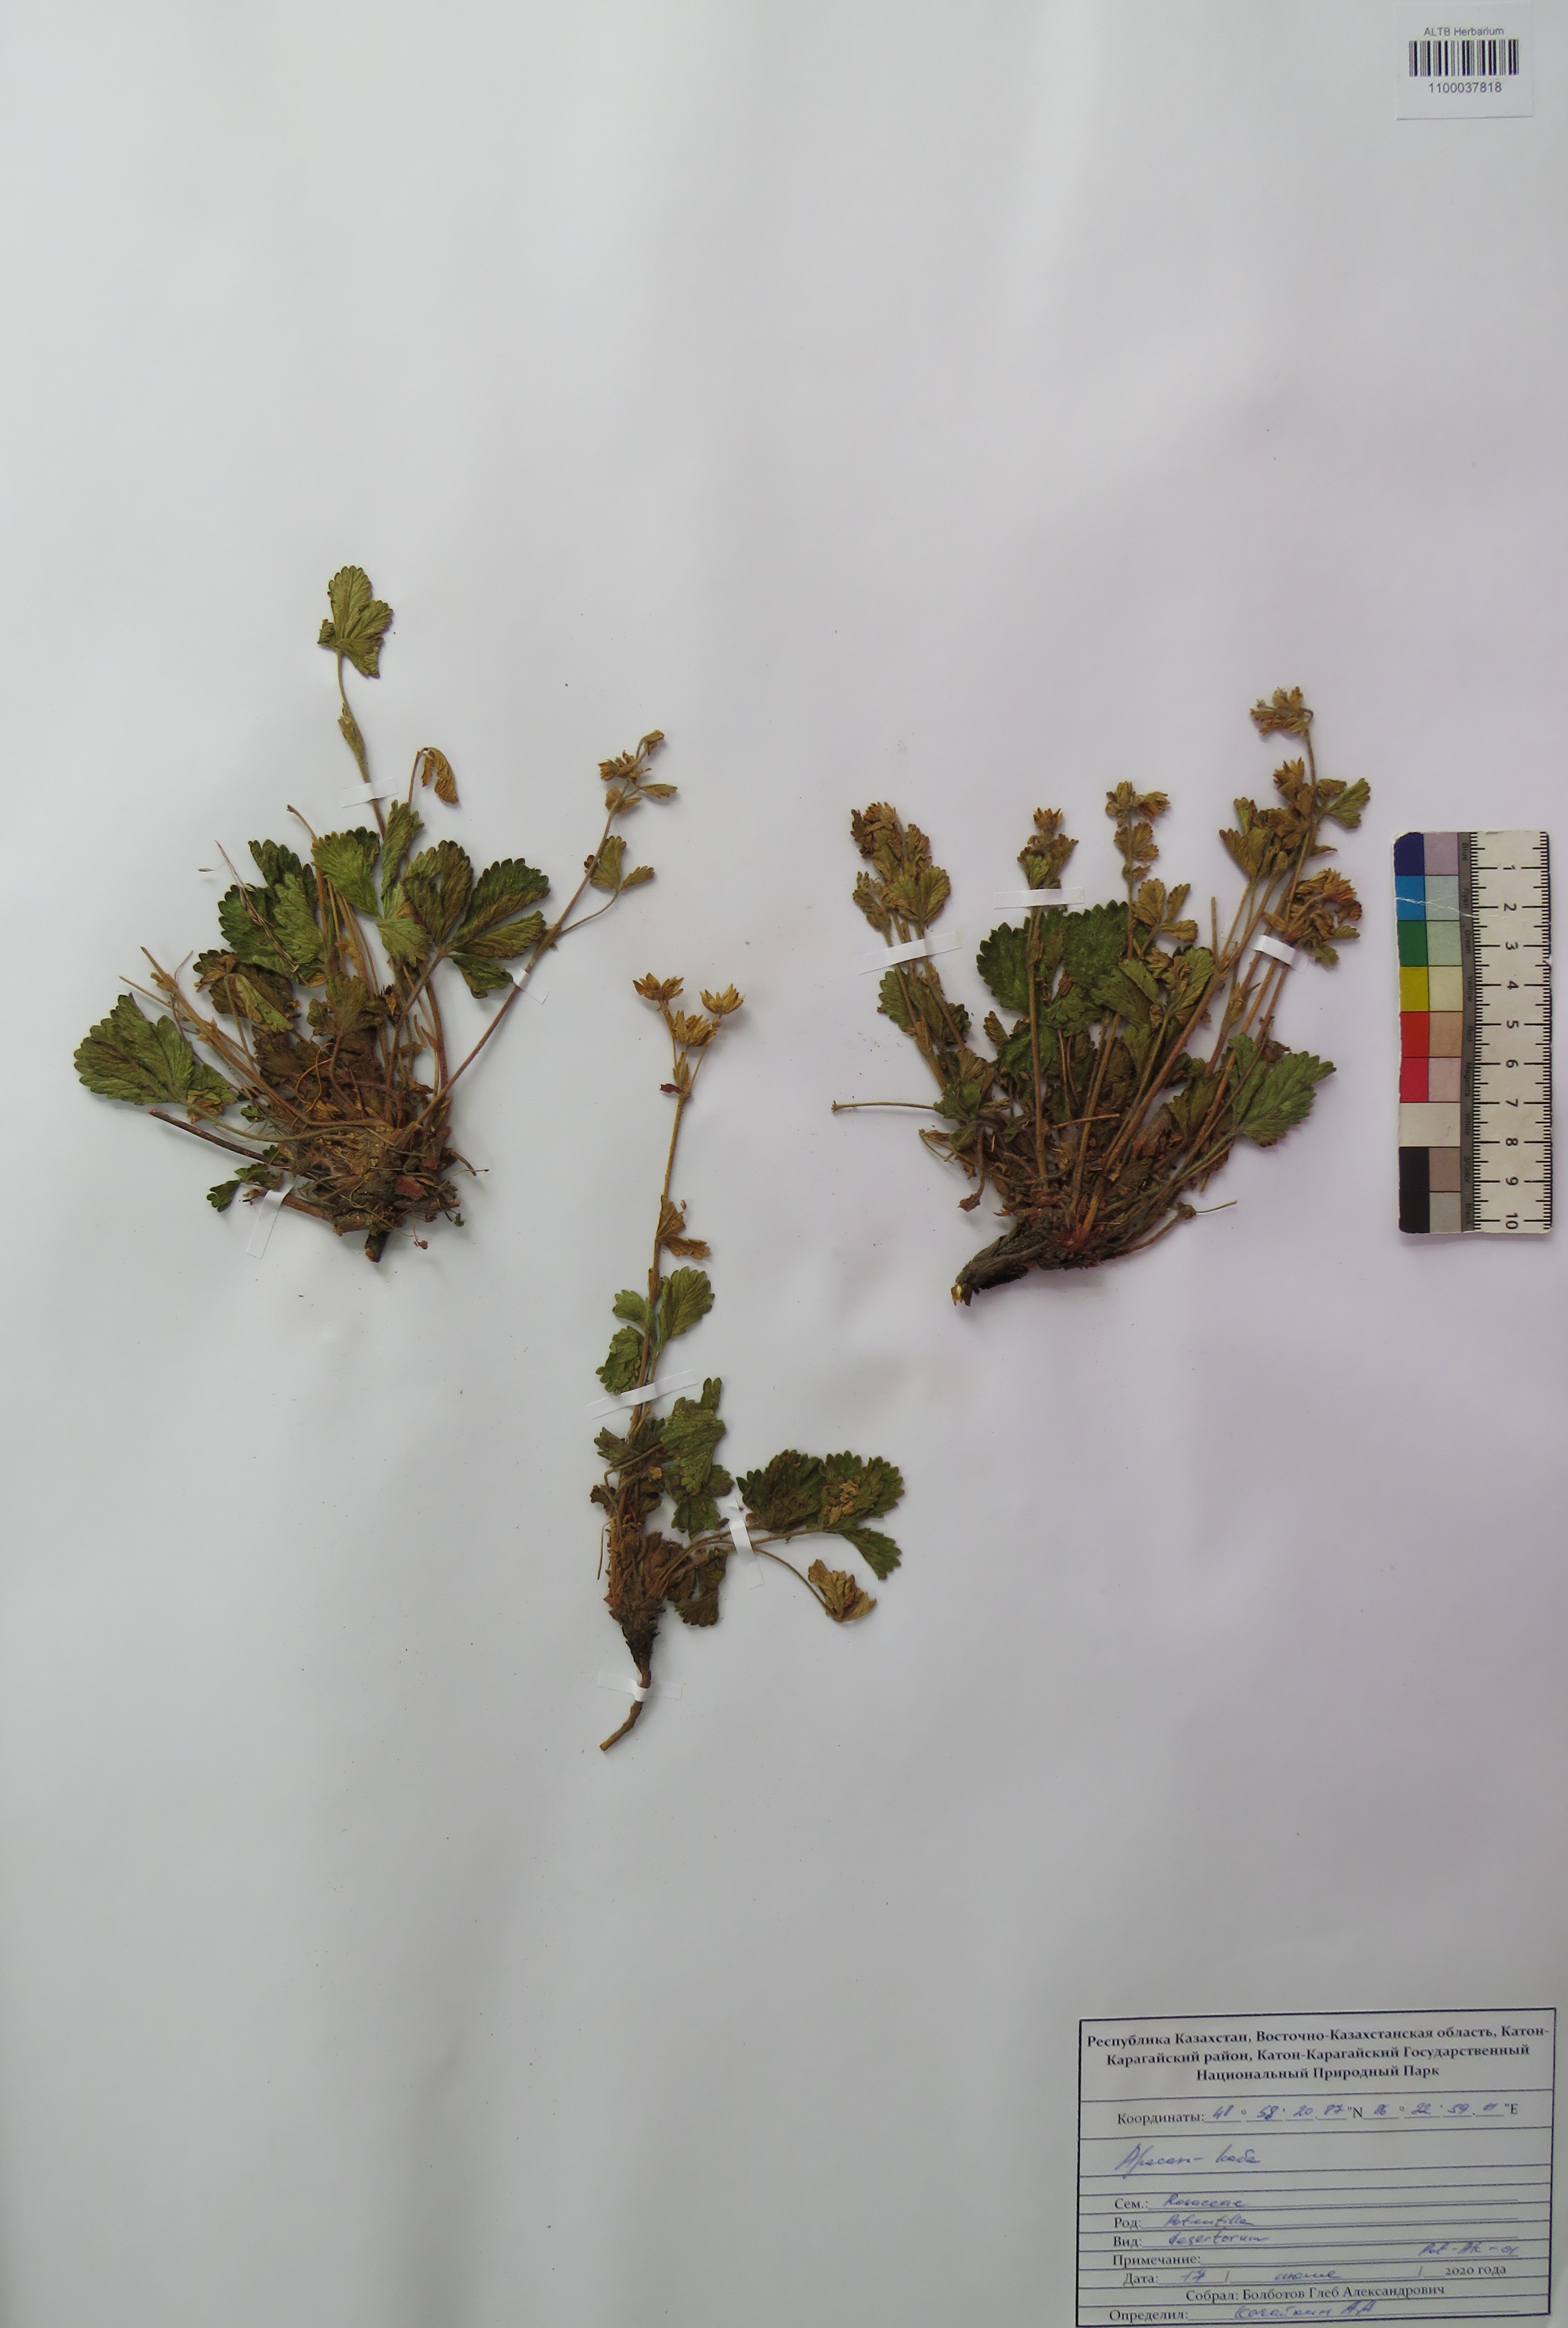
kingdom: Plantae
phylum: Tracheophyta
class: Magnoliopsida
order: Rosales
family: Rosaceae
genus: Potentilla
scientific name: Potentilla desertorum
